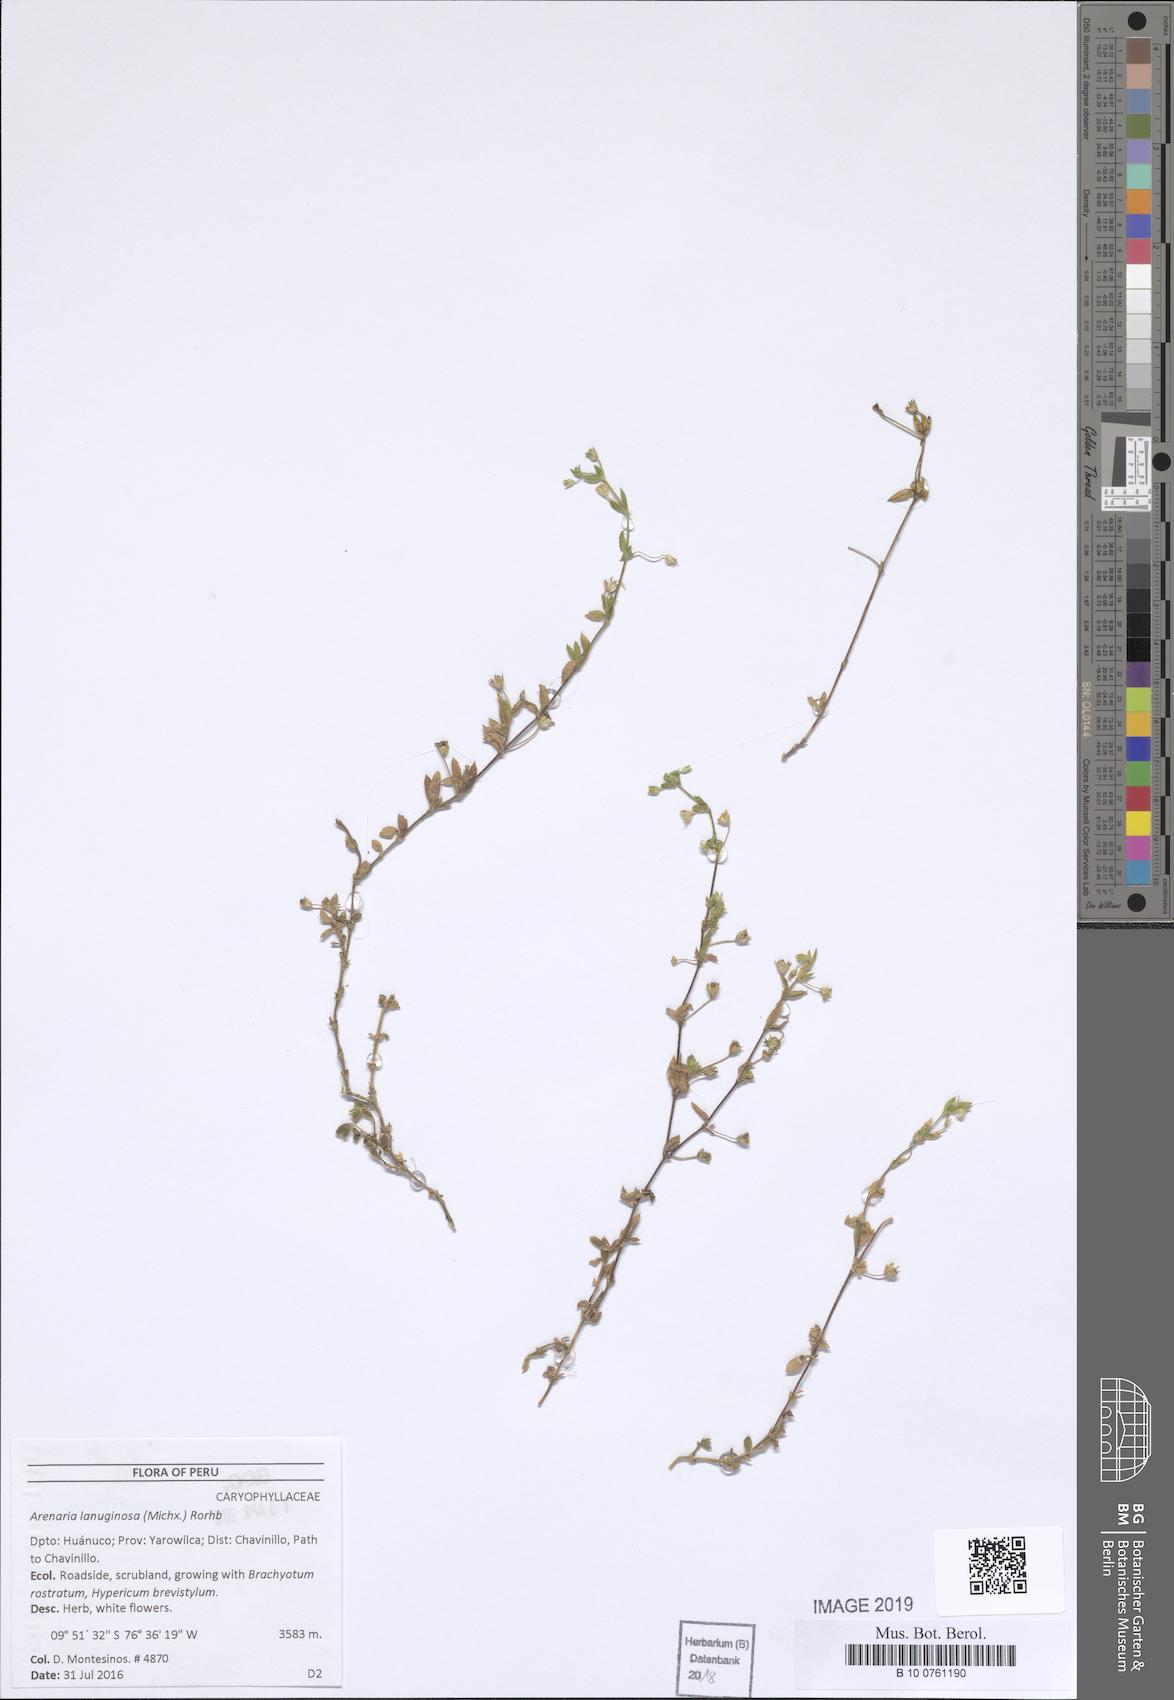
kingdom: Plantae
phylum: Tracheophyta
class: Magnoliopsida
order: Caryophyllales
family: Caryophyllaceae
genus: Arenaria
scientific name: Arenaria lanuginosa
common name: Spread sandwort
